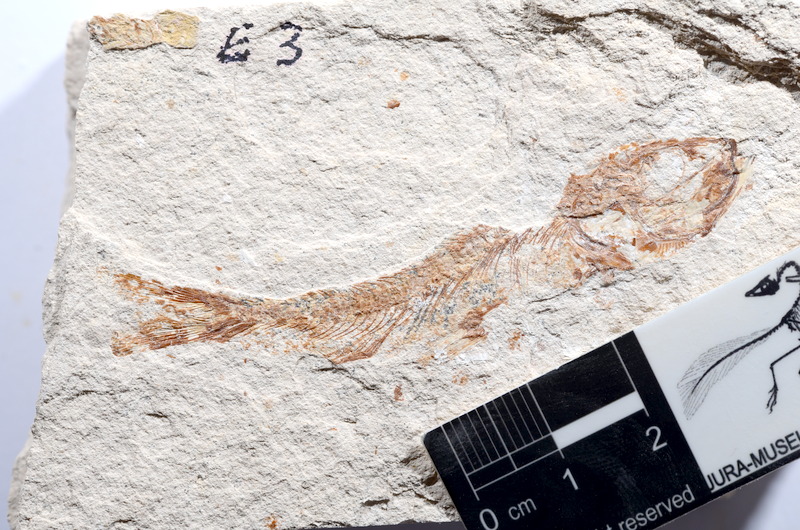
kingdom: Animalia
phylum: Chordata
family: Ascalaboidae
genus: Tharsis
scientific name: Tharsis dubius
